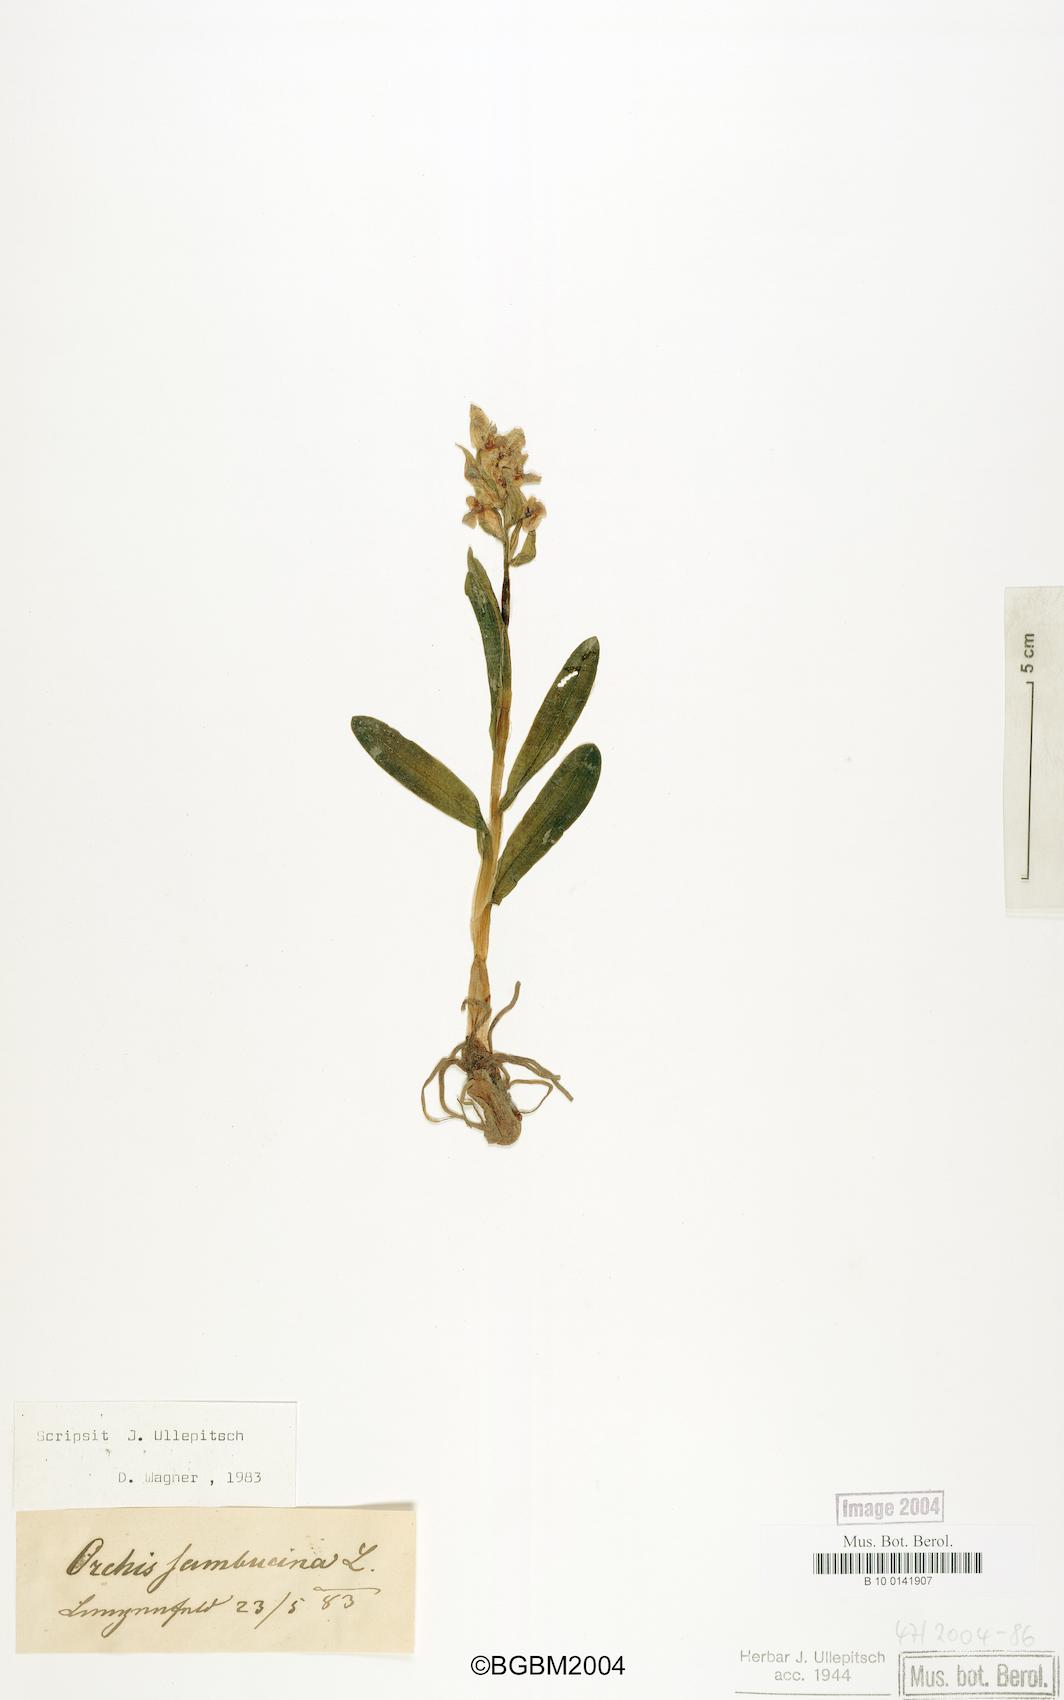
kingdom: Plantae
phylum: Tracheophyta
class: Liliopsida
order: Asparagales
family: Orchidaceae
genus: Dactylorhiza
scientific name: Dactylorhiza sambucina
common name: Elder-flowered orchid
